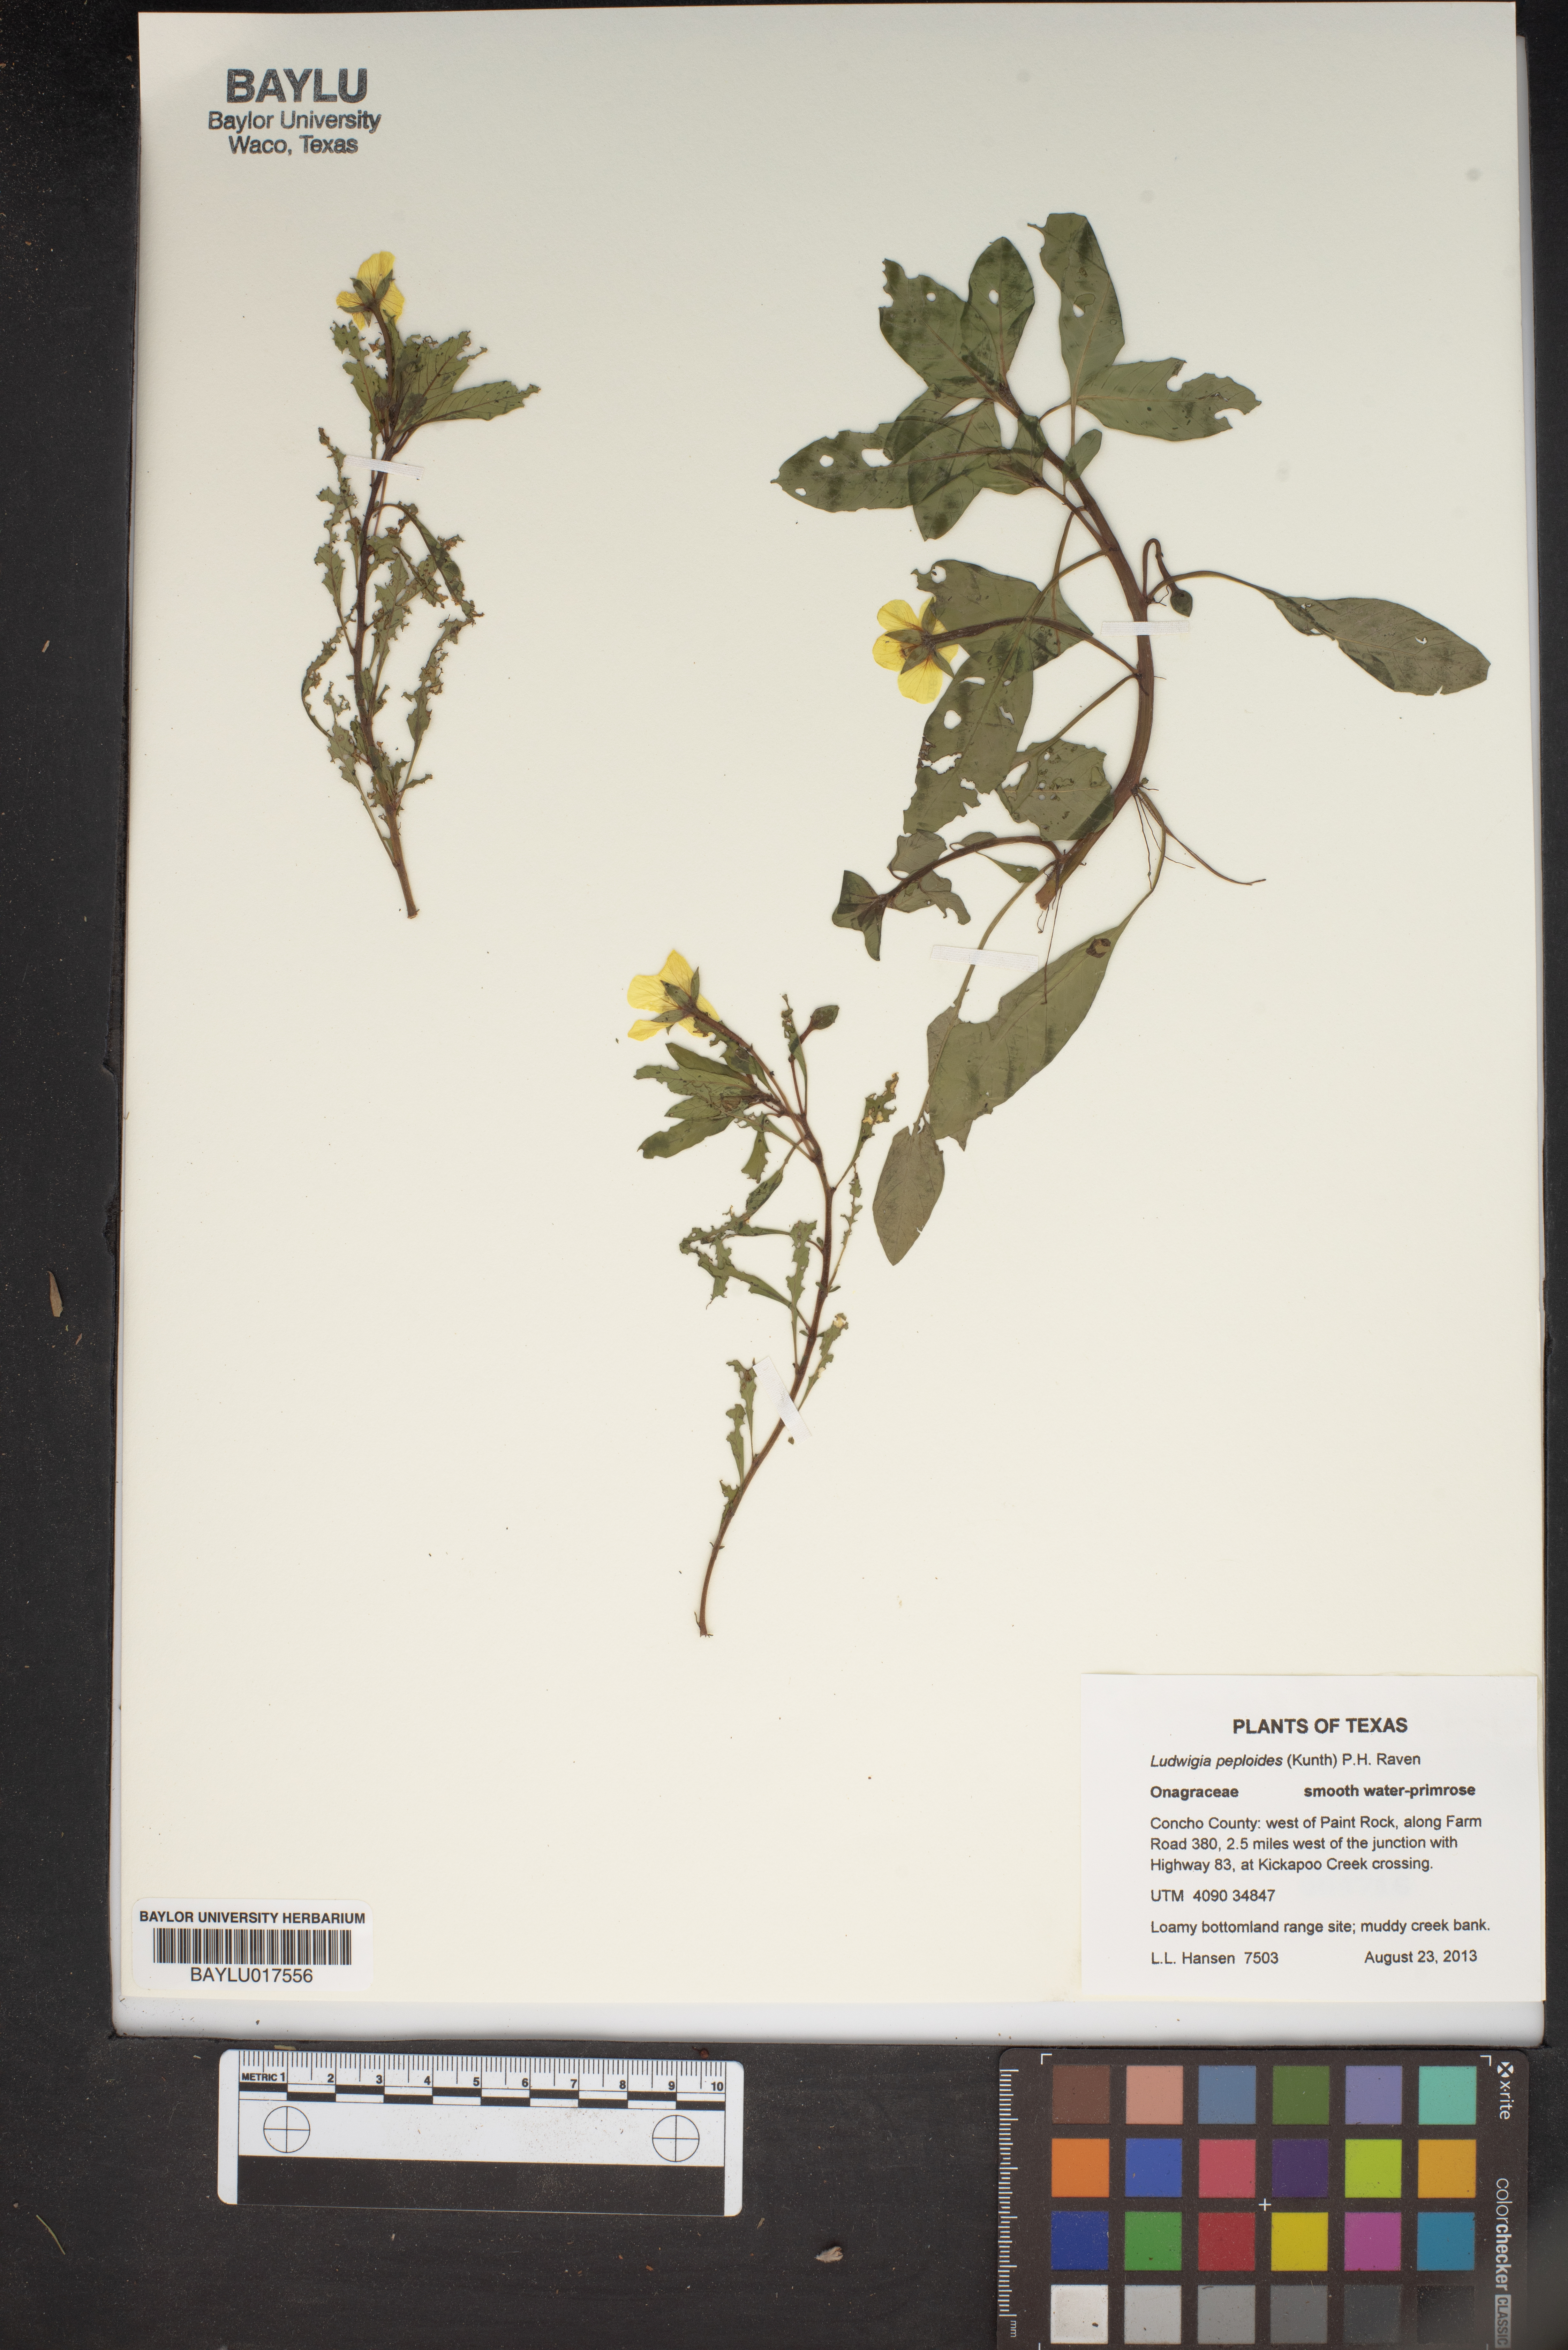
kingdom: Plantae
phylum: Tracheophyta
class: Magnoliopsida
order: Myrtales
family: Onagraceae
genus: Ludwigia
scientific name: Ludwigia peploides
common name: Floating primrose-willow
